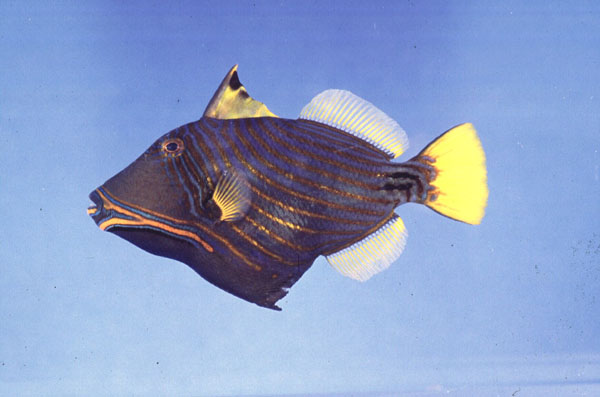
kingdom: Animalia
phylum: Chordata
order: Tetraodontiformes
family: Balistidae
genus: Balistapus
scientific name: Balistapus undulatus
